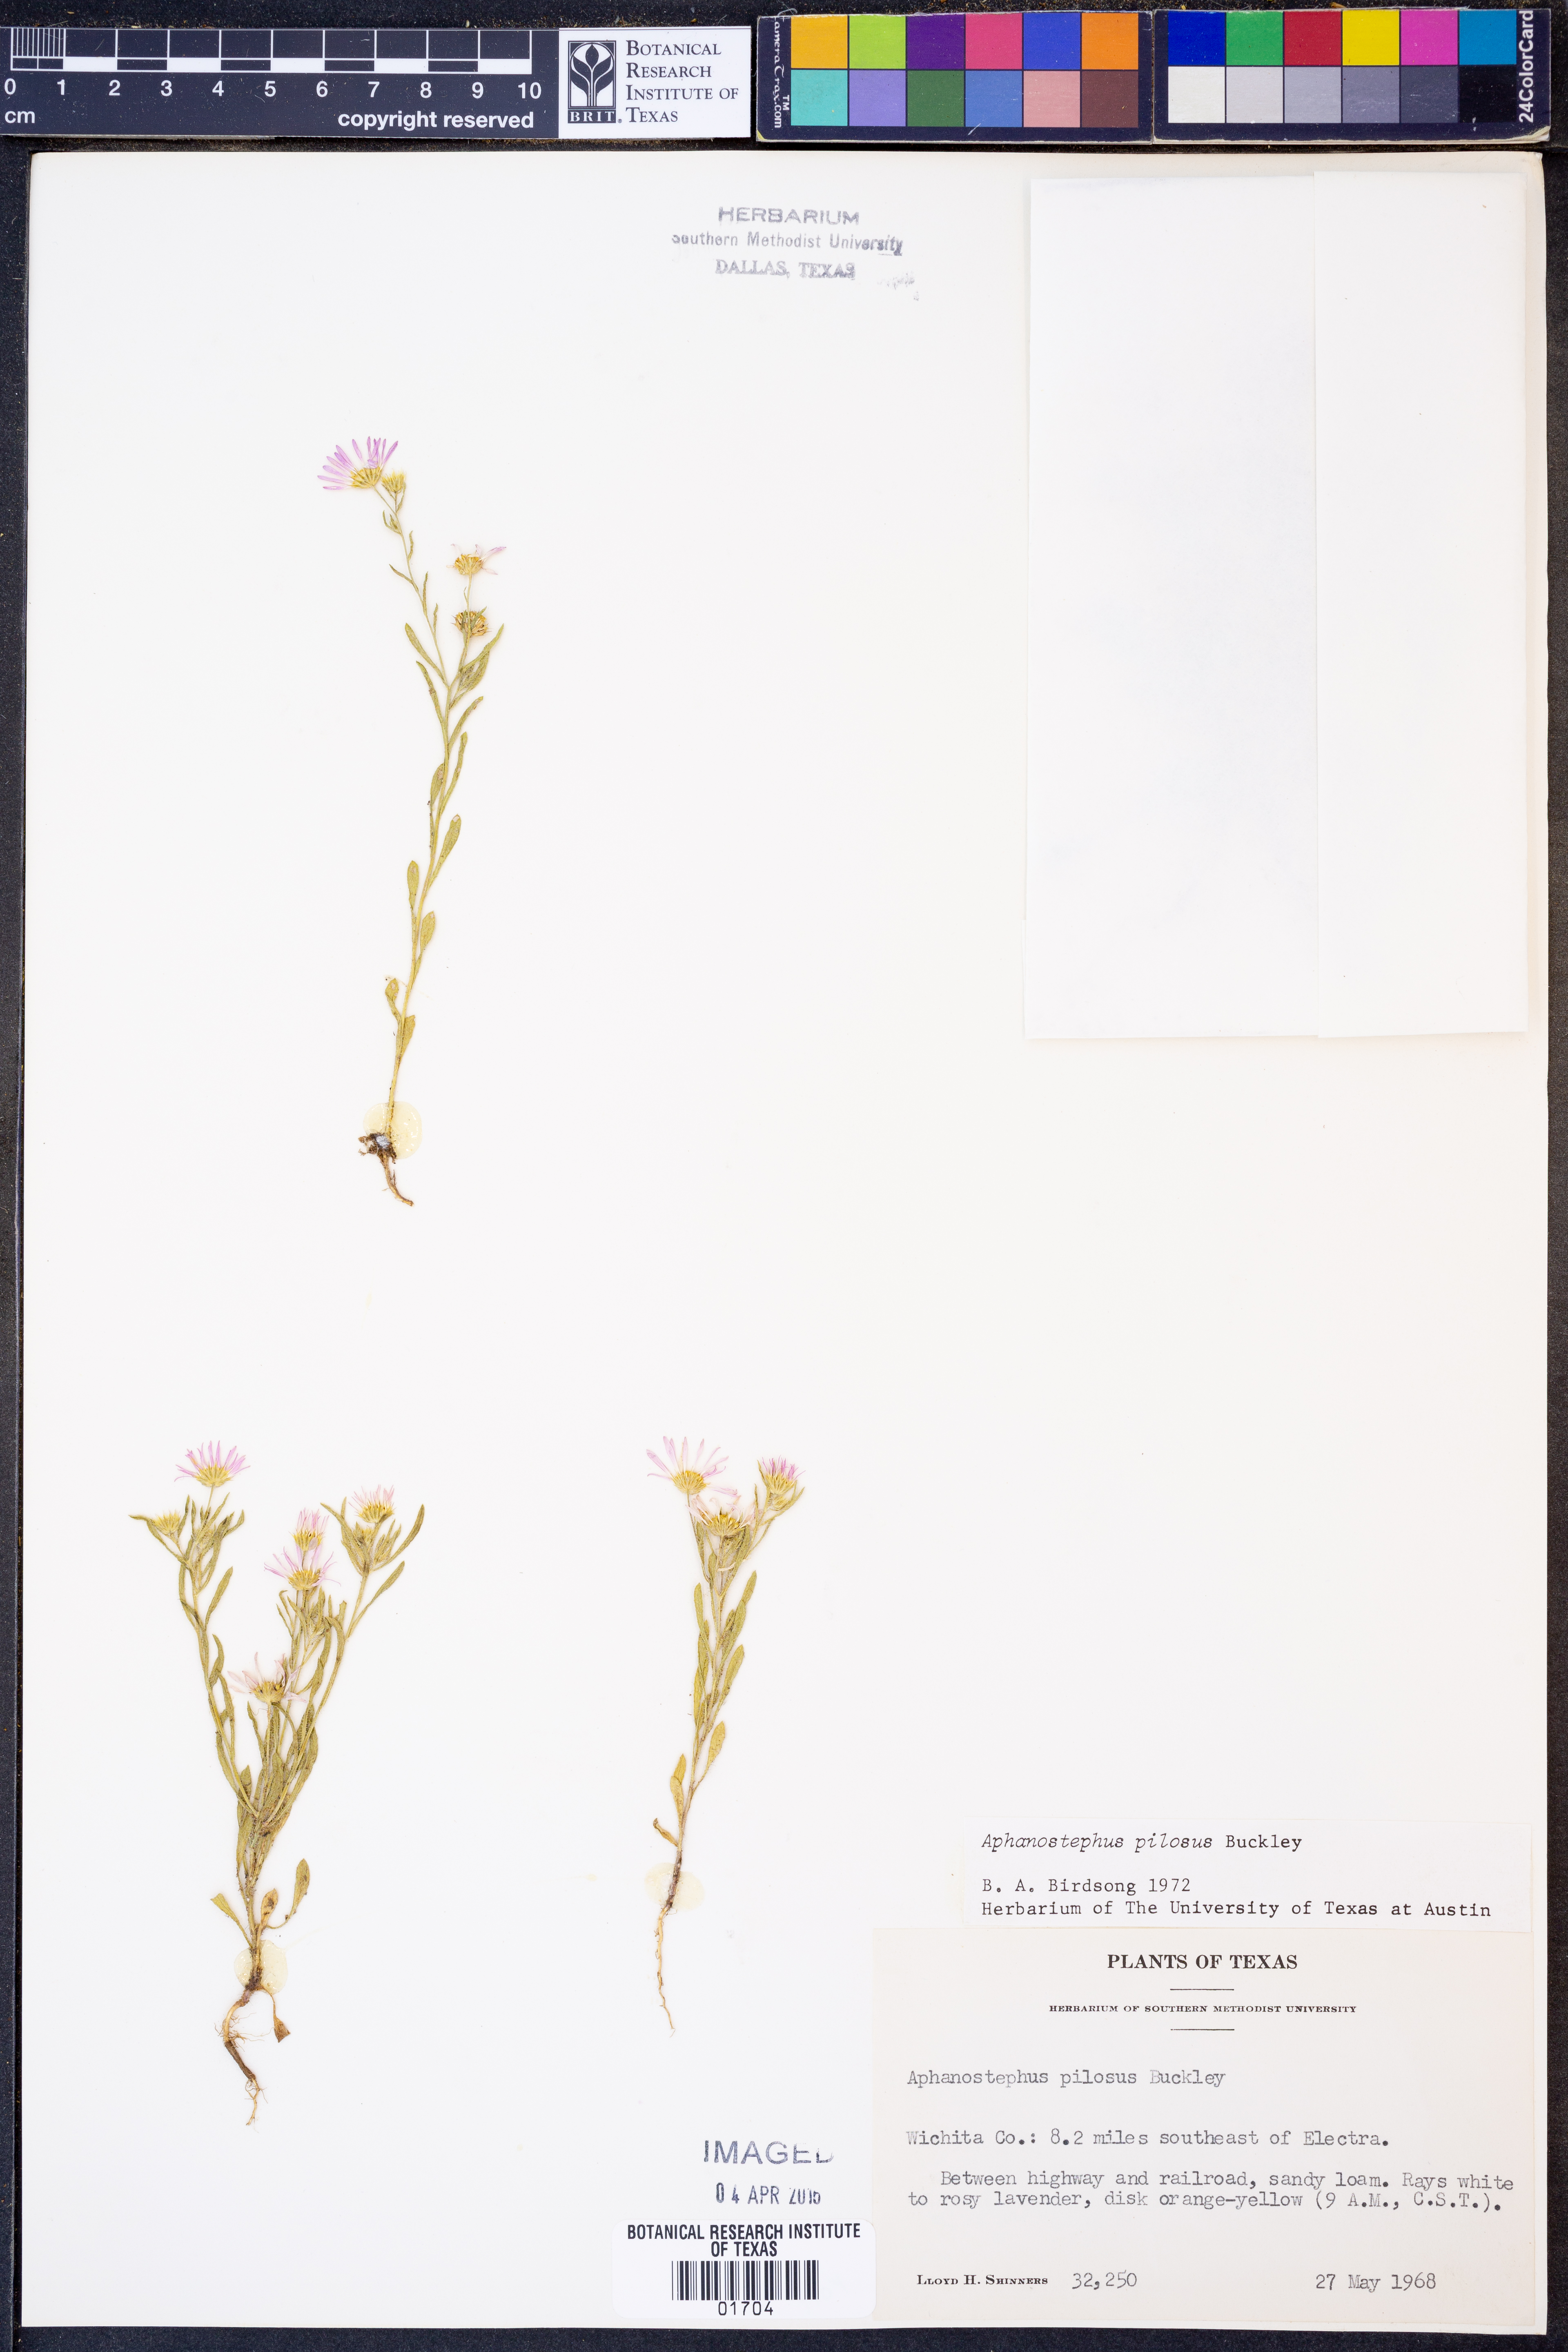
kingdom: Plantae
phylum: Tracheophyta
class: Magnoliopsida
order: Asterales
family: Asteraceae
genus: Aphanostephus
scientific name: Aphanostephus pilosus
